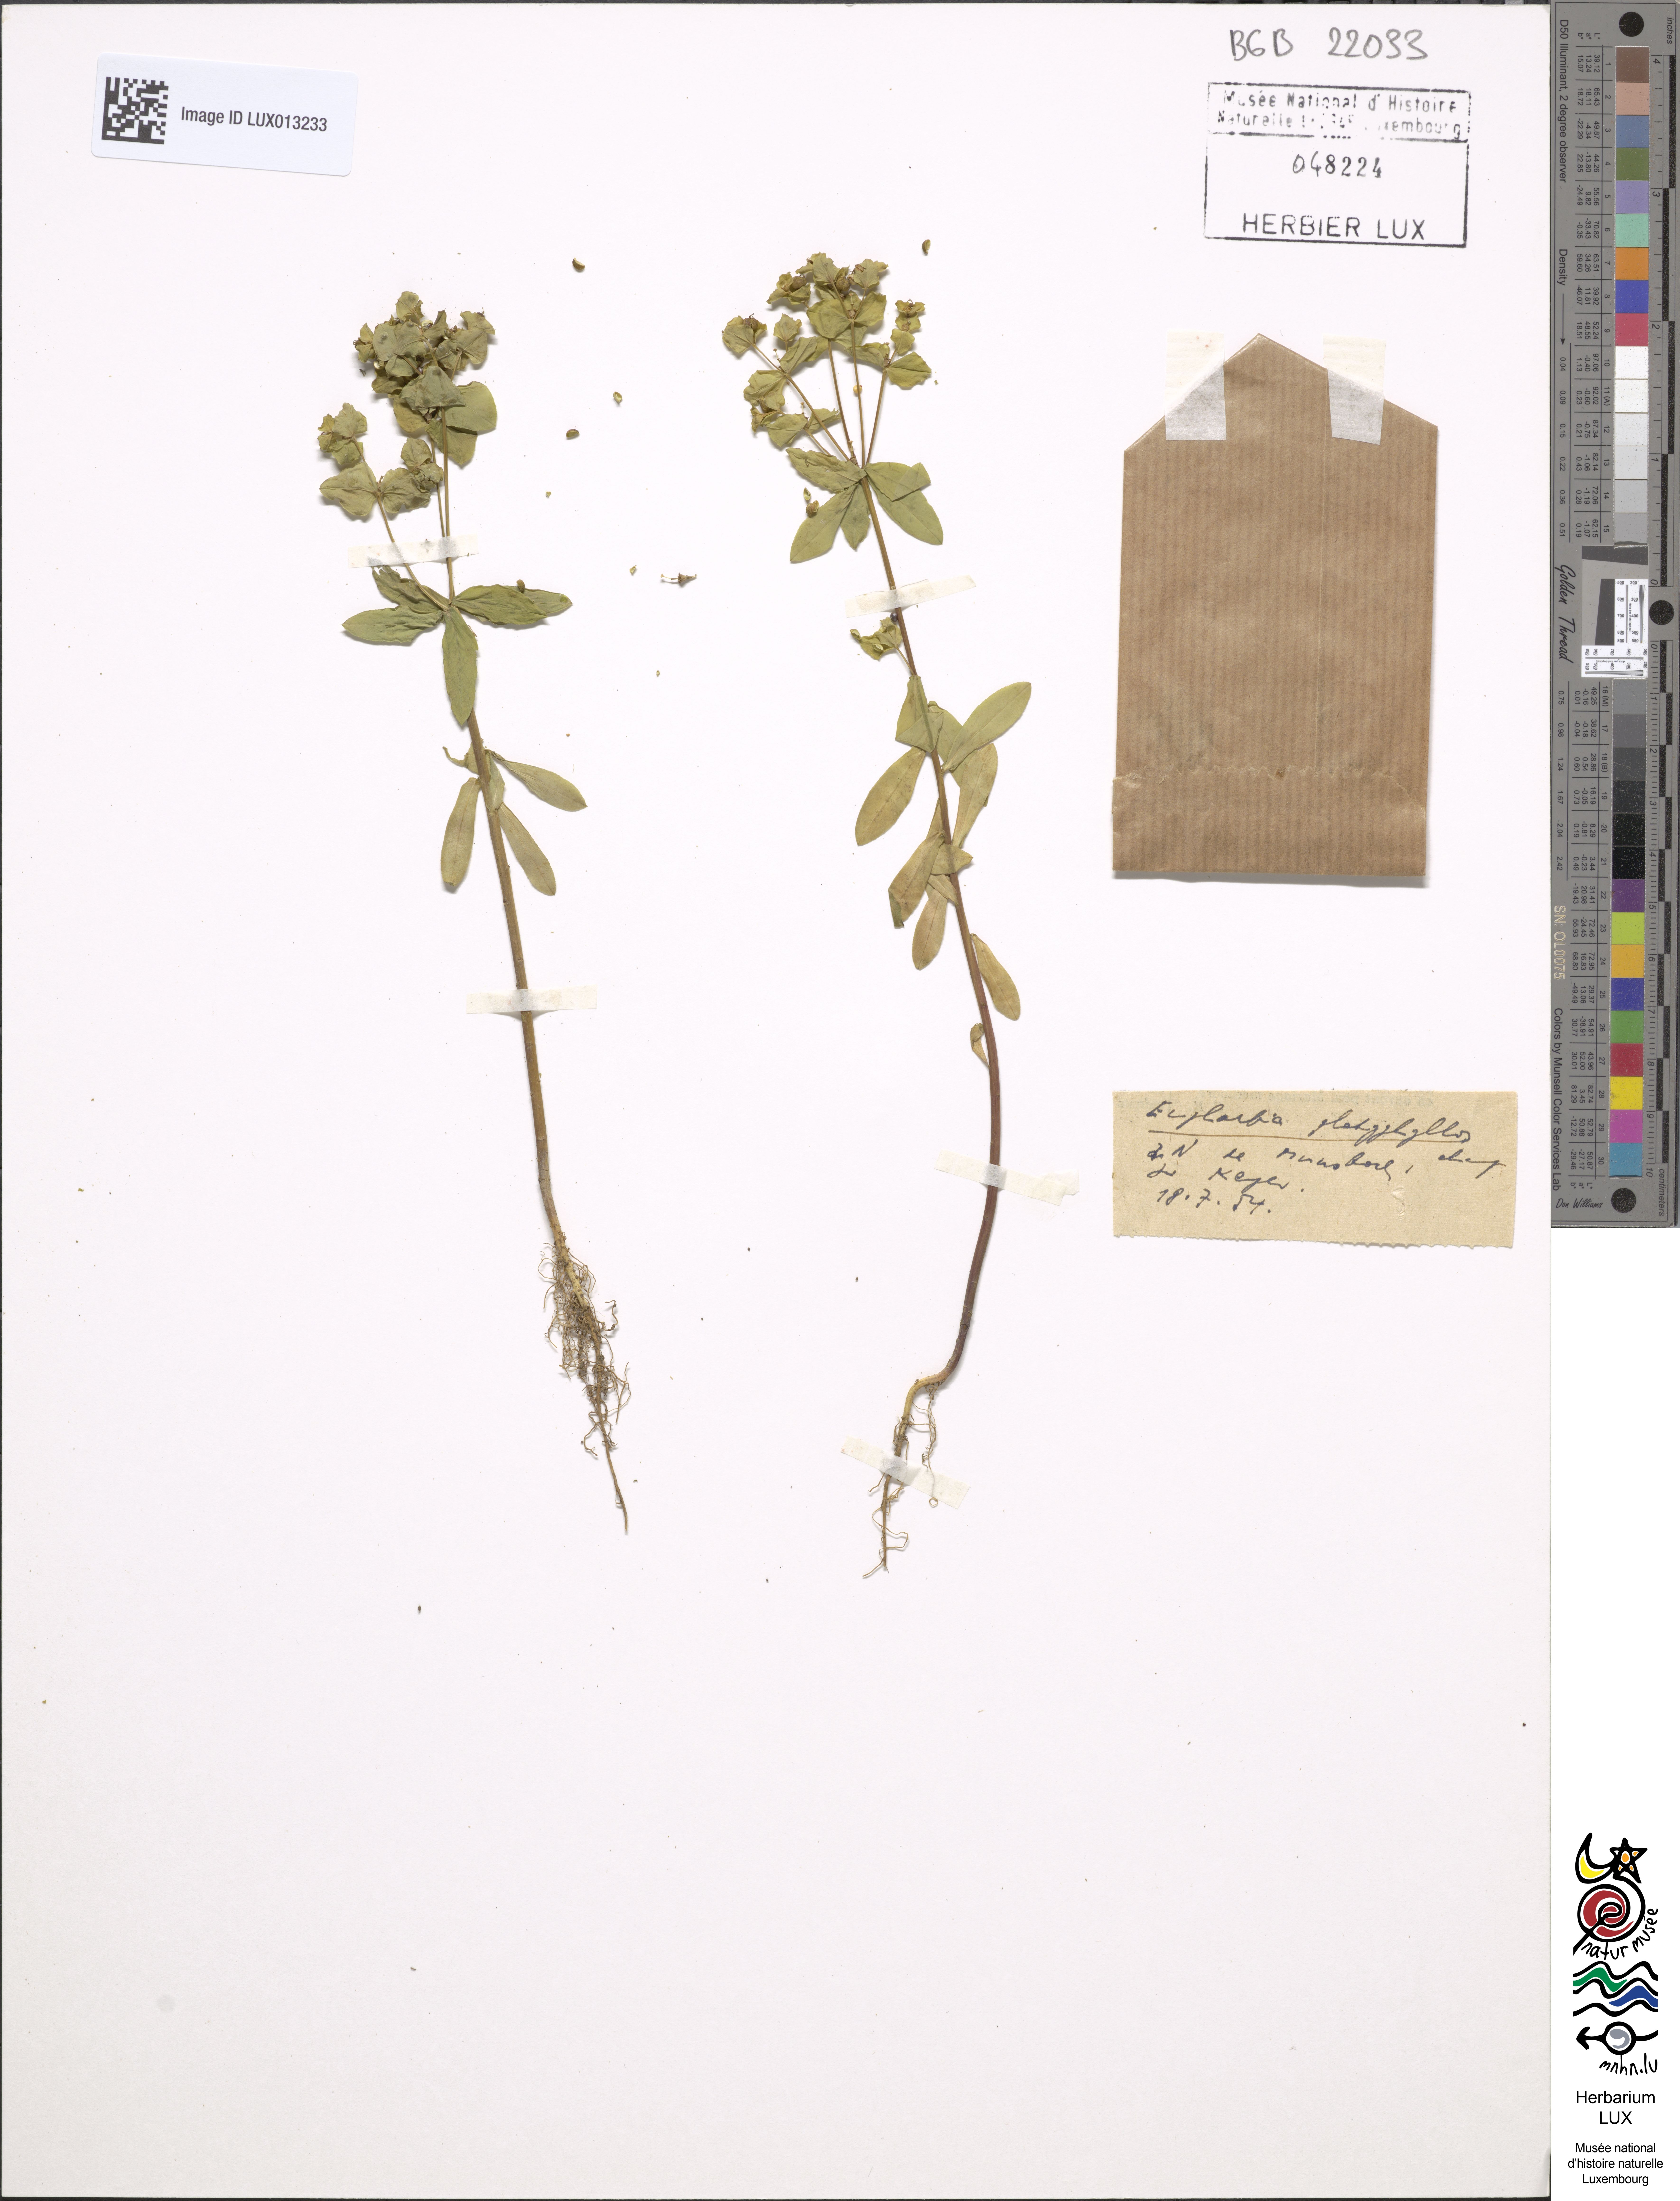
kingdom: Plantae
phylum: Tracheophyta
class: Magnoliopsida
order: Malpighiales
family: Euphorbiaceae
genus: Euphorbia
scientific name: Euphorbia platyphyllos
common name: Broad-leaved spurge
